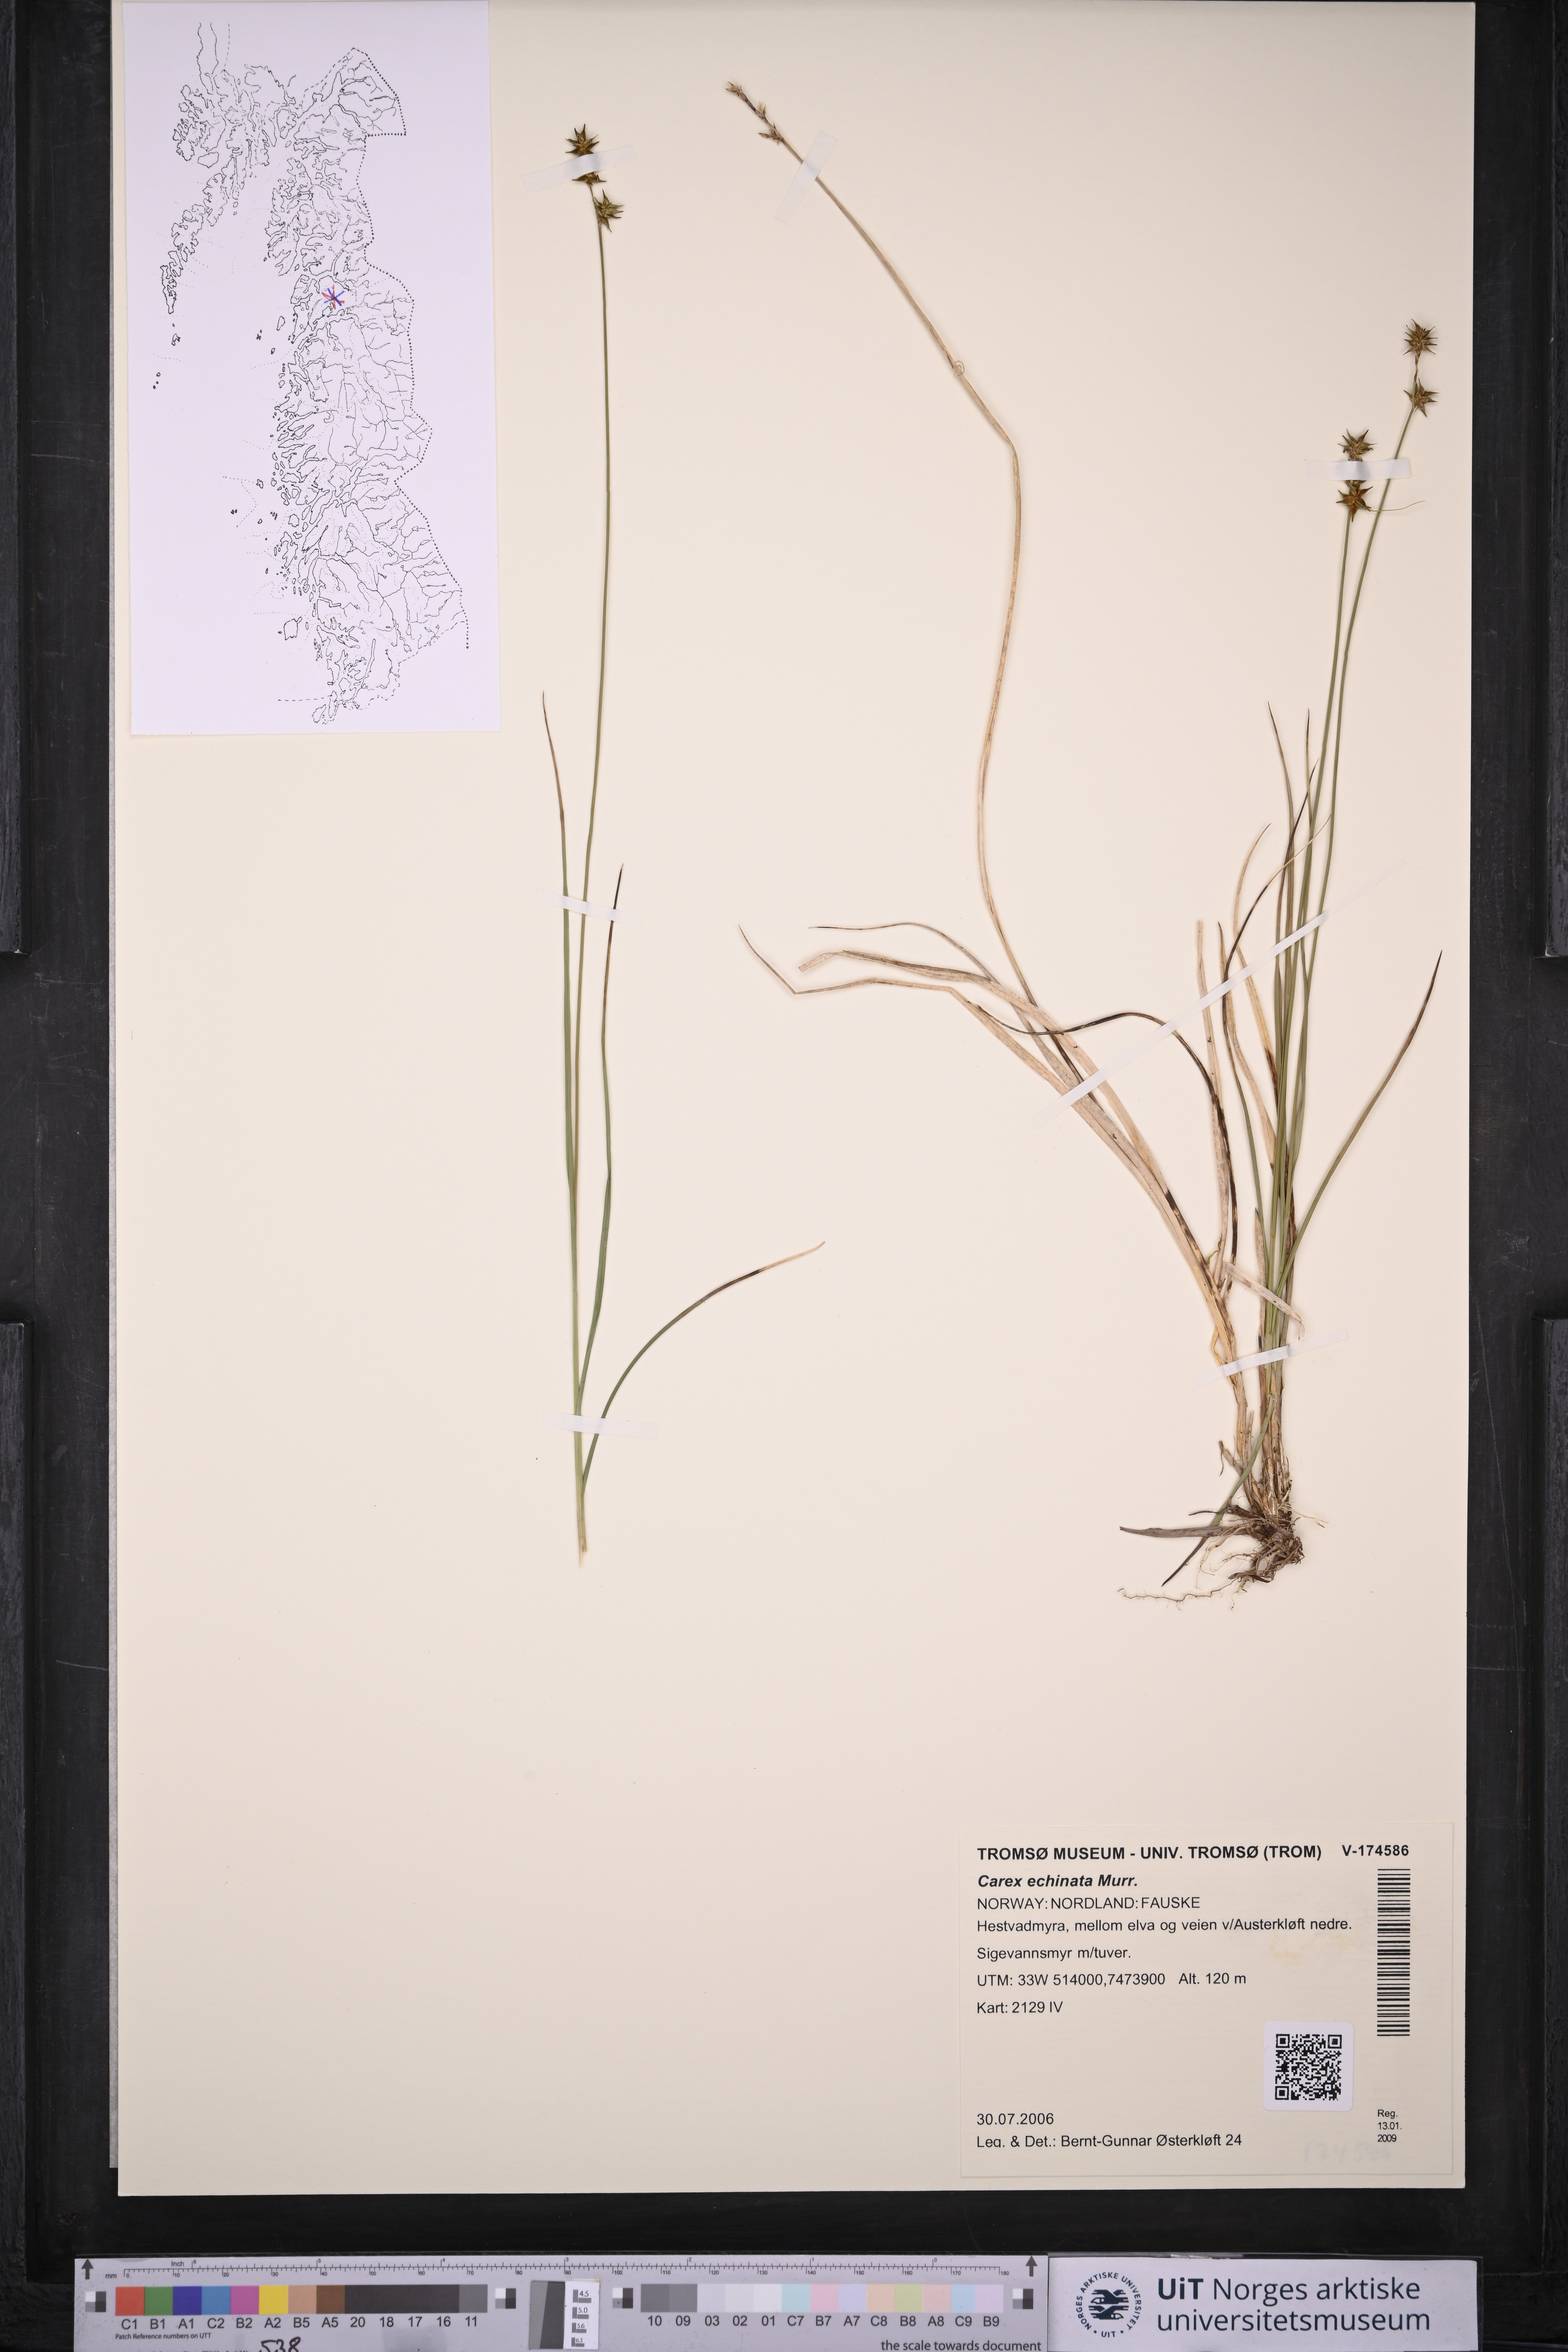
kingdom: Plantae
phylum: Tracheophyta
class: Liliopsida
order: Poales
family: Cyperaceae
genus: Carex
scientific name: Carex echinata
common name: Star sedge
